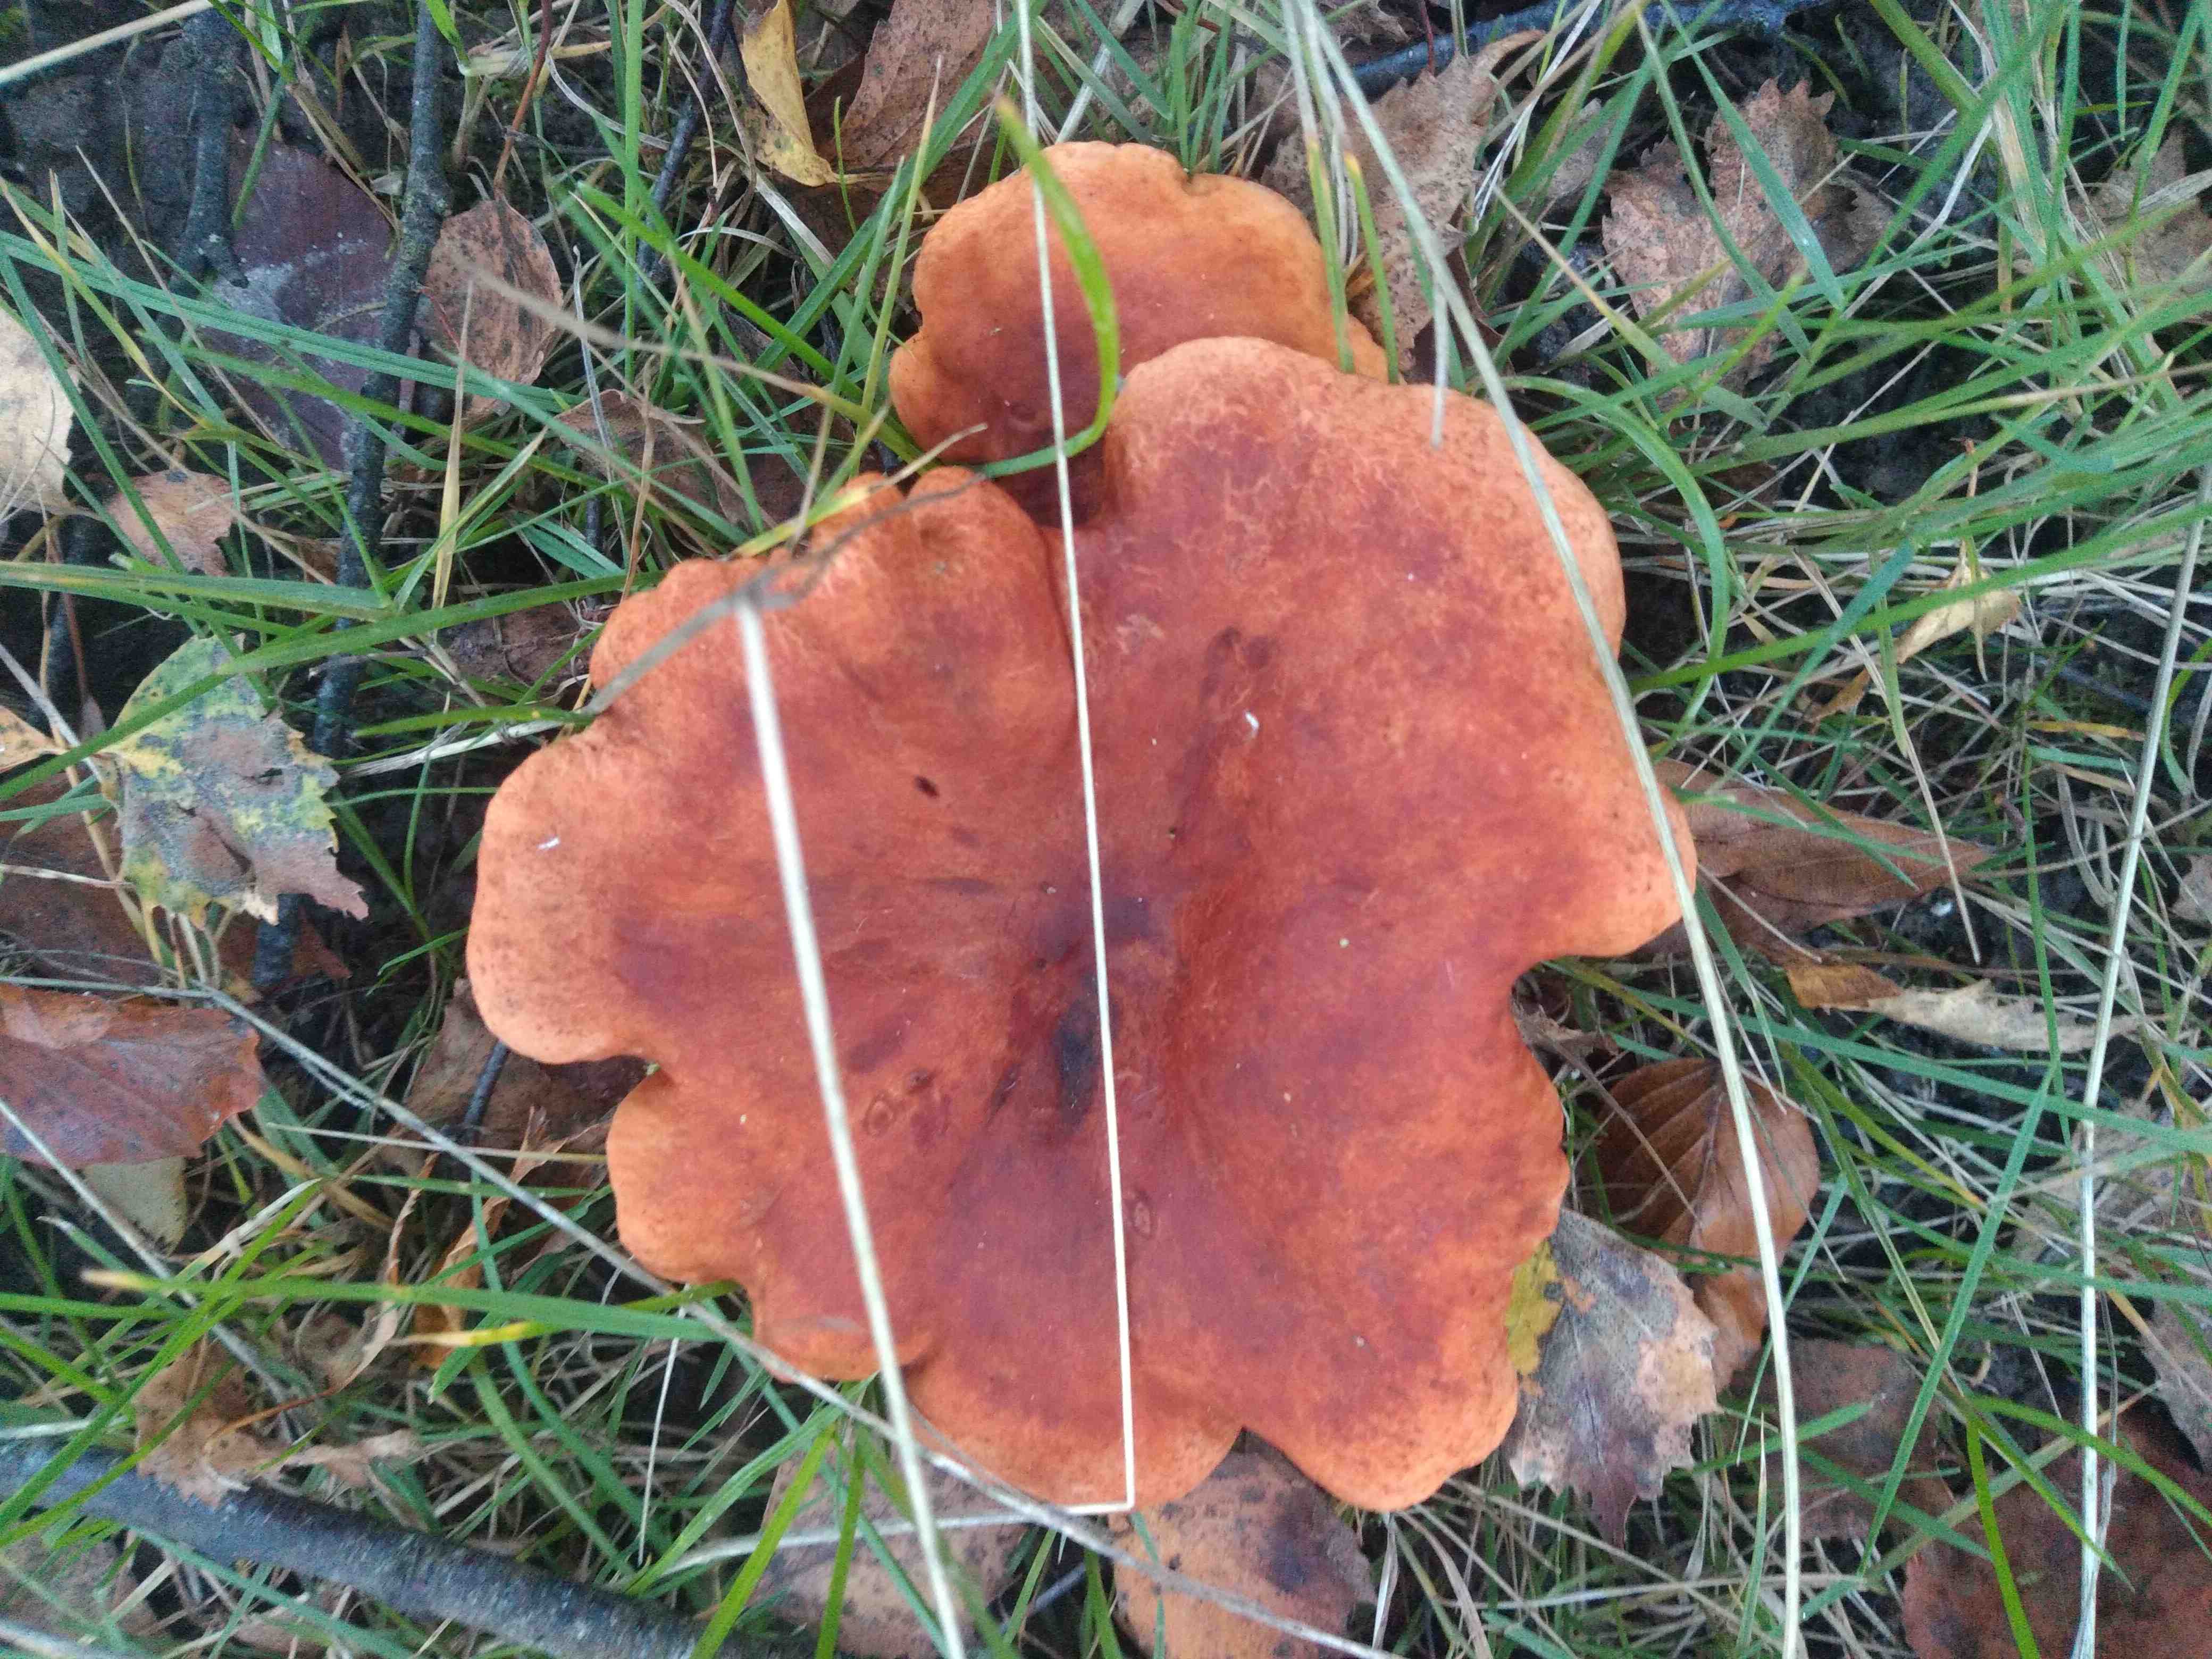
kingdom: Fungi
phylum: Basidiomycota
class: Agaricomycetes
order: Russulales
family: Russulaceae
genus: Lactarius
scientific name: Lactarius fulvissimus
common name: ræve-mælkehat
